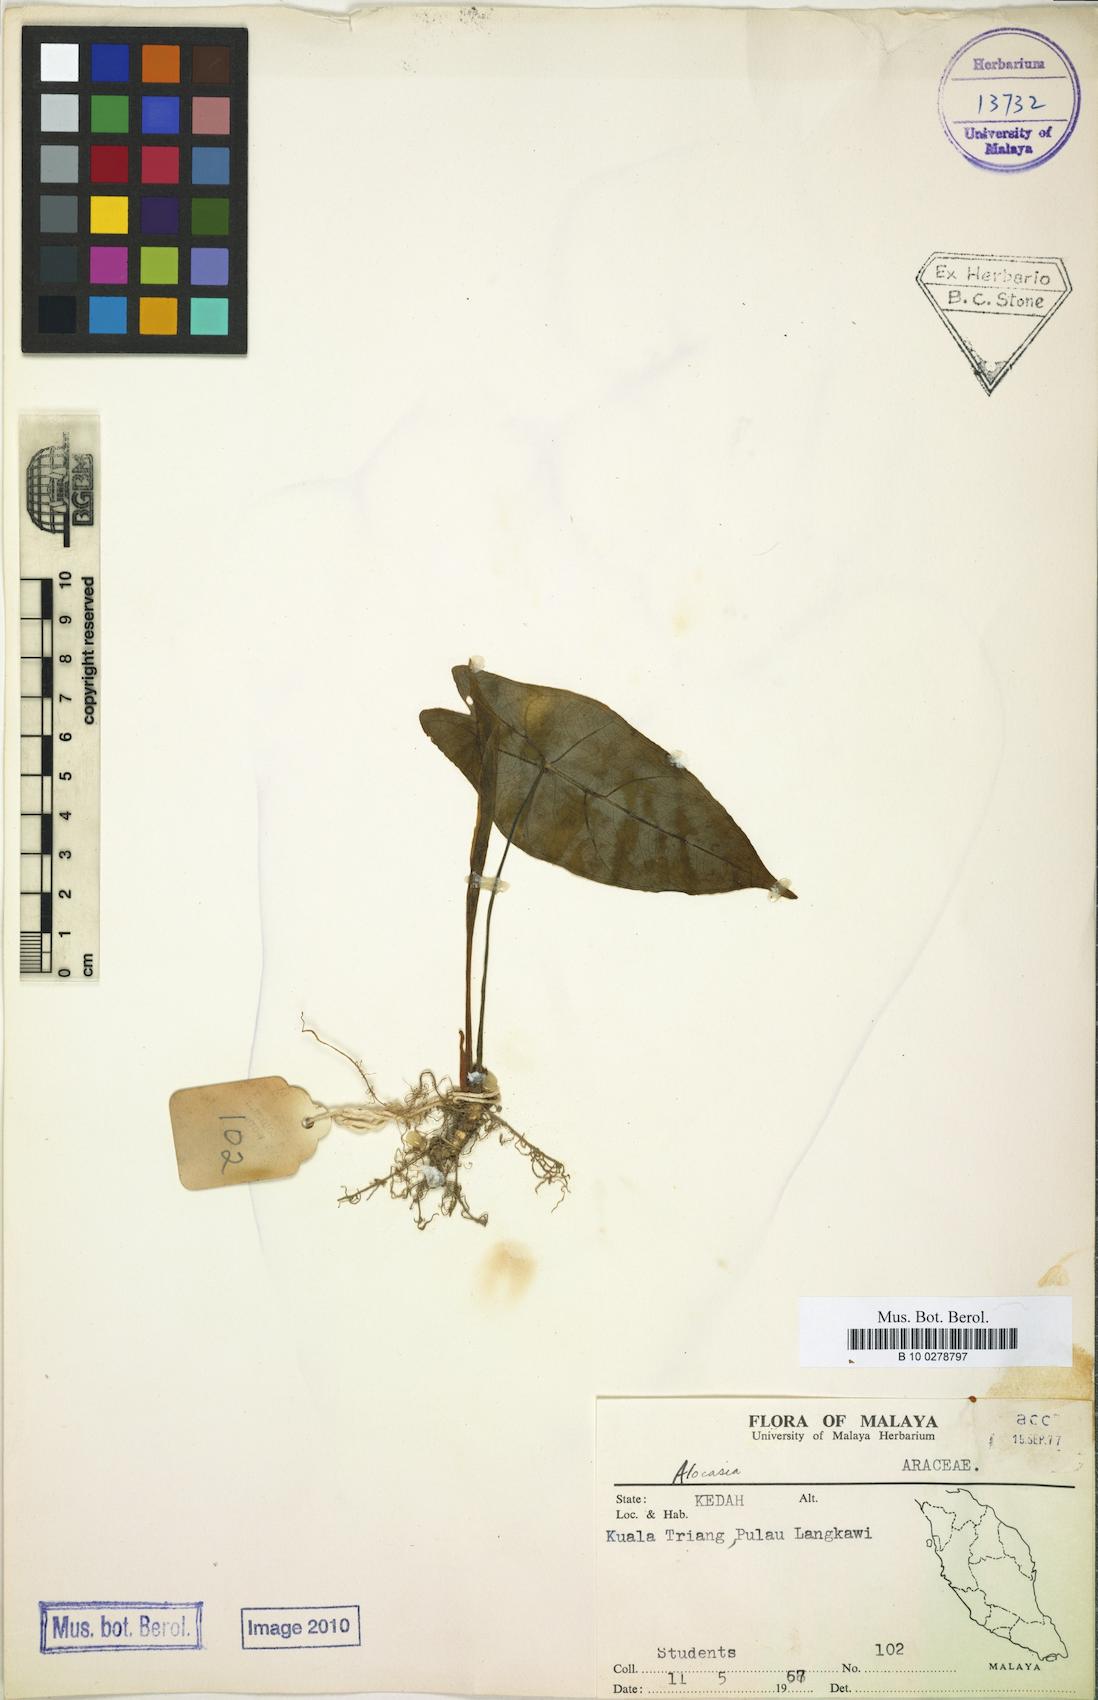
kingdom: Plantae
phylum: Tracheophyta
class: Liliopsida
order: Alismatales
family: Araceae
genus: Alocasia
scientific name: Alocasia
